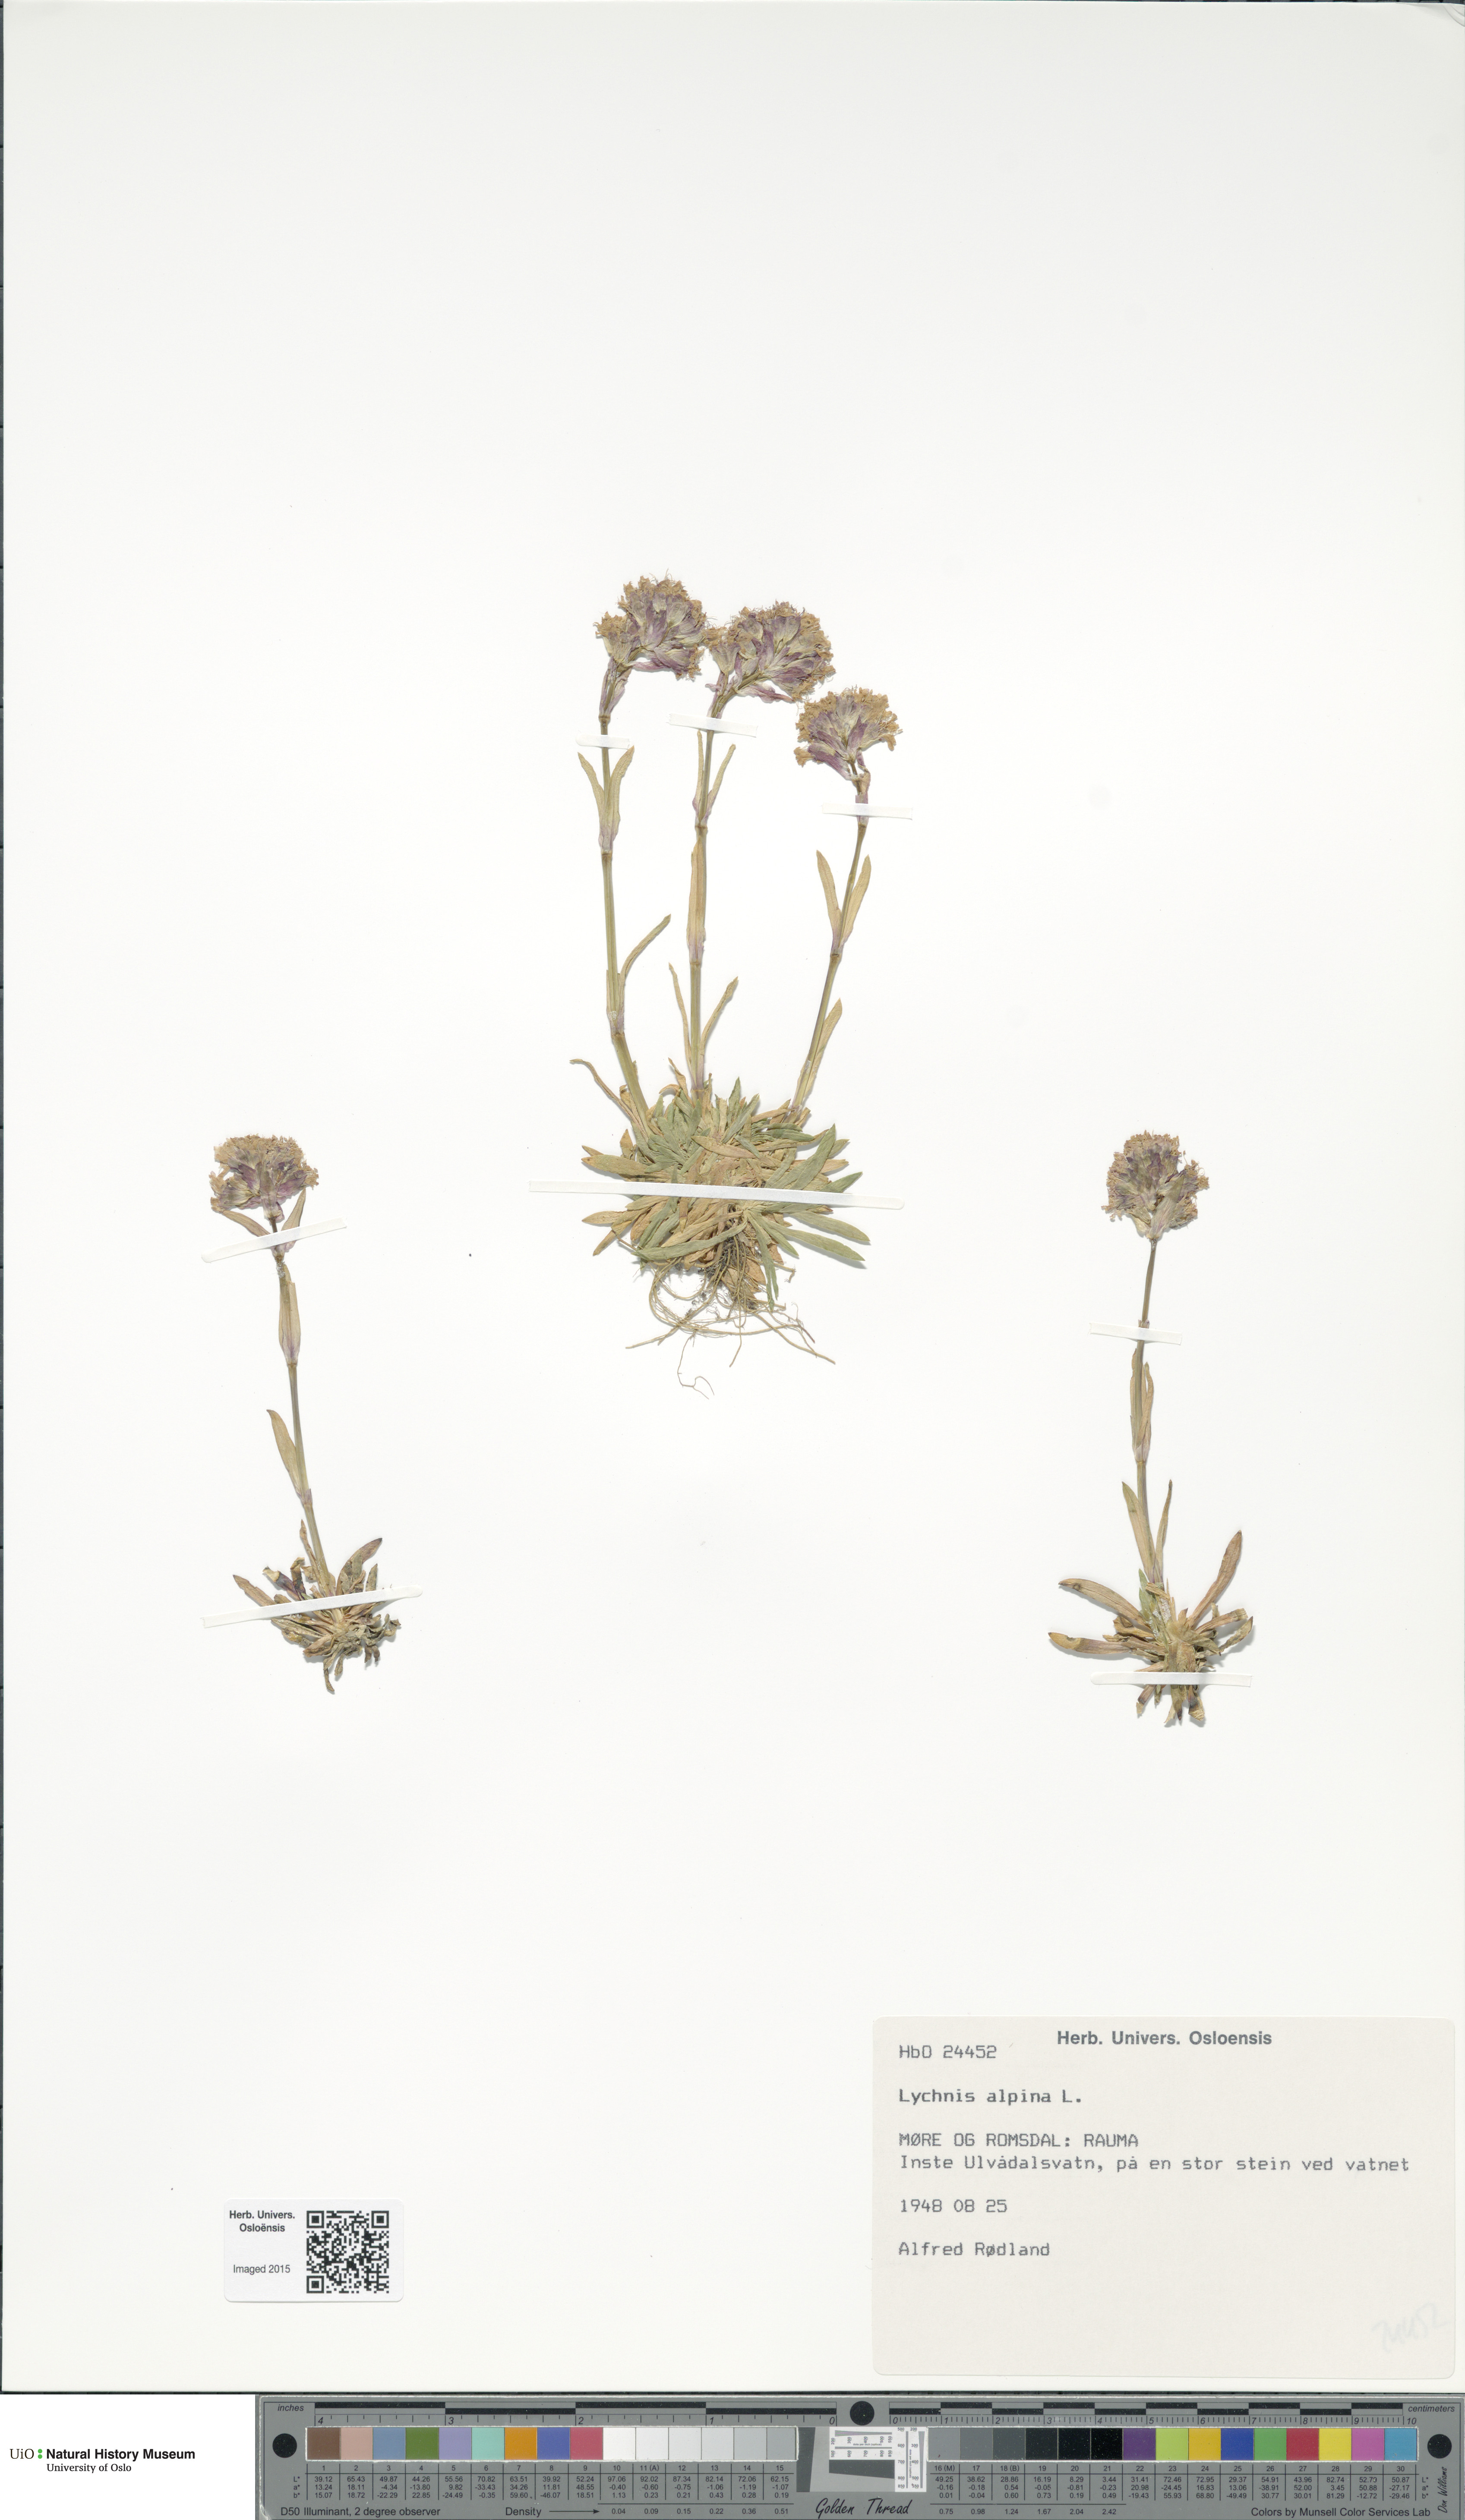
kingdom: Plantae
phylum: Tracheophyta
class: Magnoliopsida
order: Caryophyllales
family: Caryophyllaceae
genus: Viscaria
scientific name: Viscaria alpina
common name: Alpine campion
